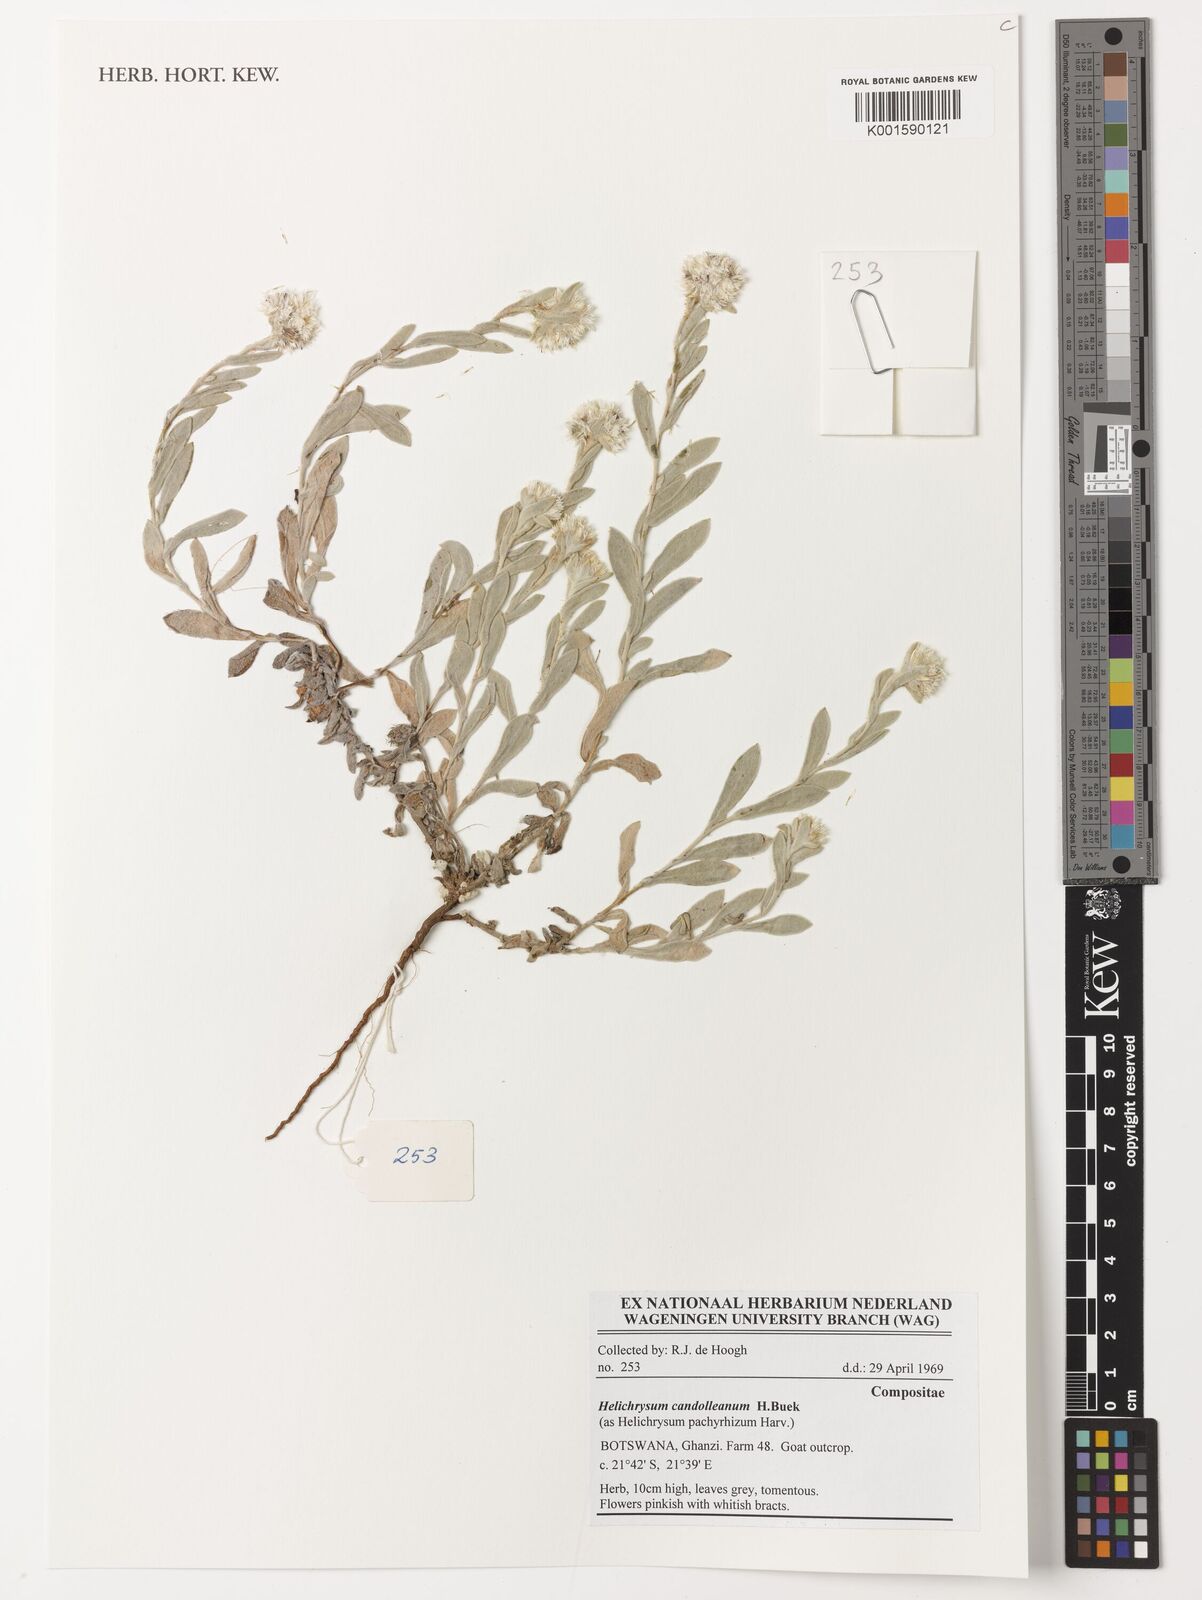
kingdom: Plantae
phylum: Tracheophyta
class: Magnoliopsida
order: Asterales
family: Asteraceae
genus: Helichrysum
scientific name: Helichrysum candolleanum
